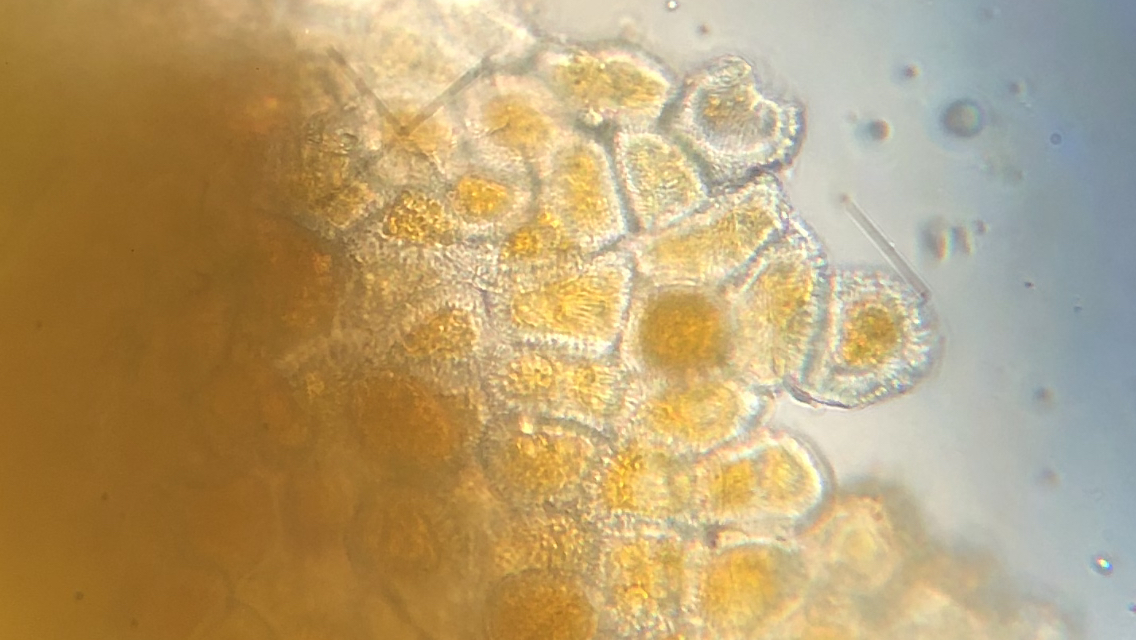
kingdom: Fungi
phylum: Basidiomycota
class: Pucciniomycetes
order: Pucciniales
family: Pucciniaceae
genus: Puccinia
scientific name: Puccinia recondita
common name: Brown rust of wheat
